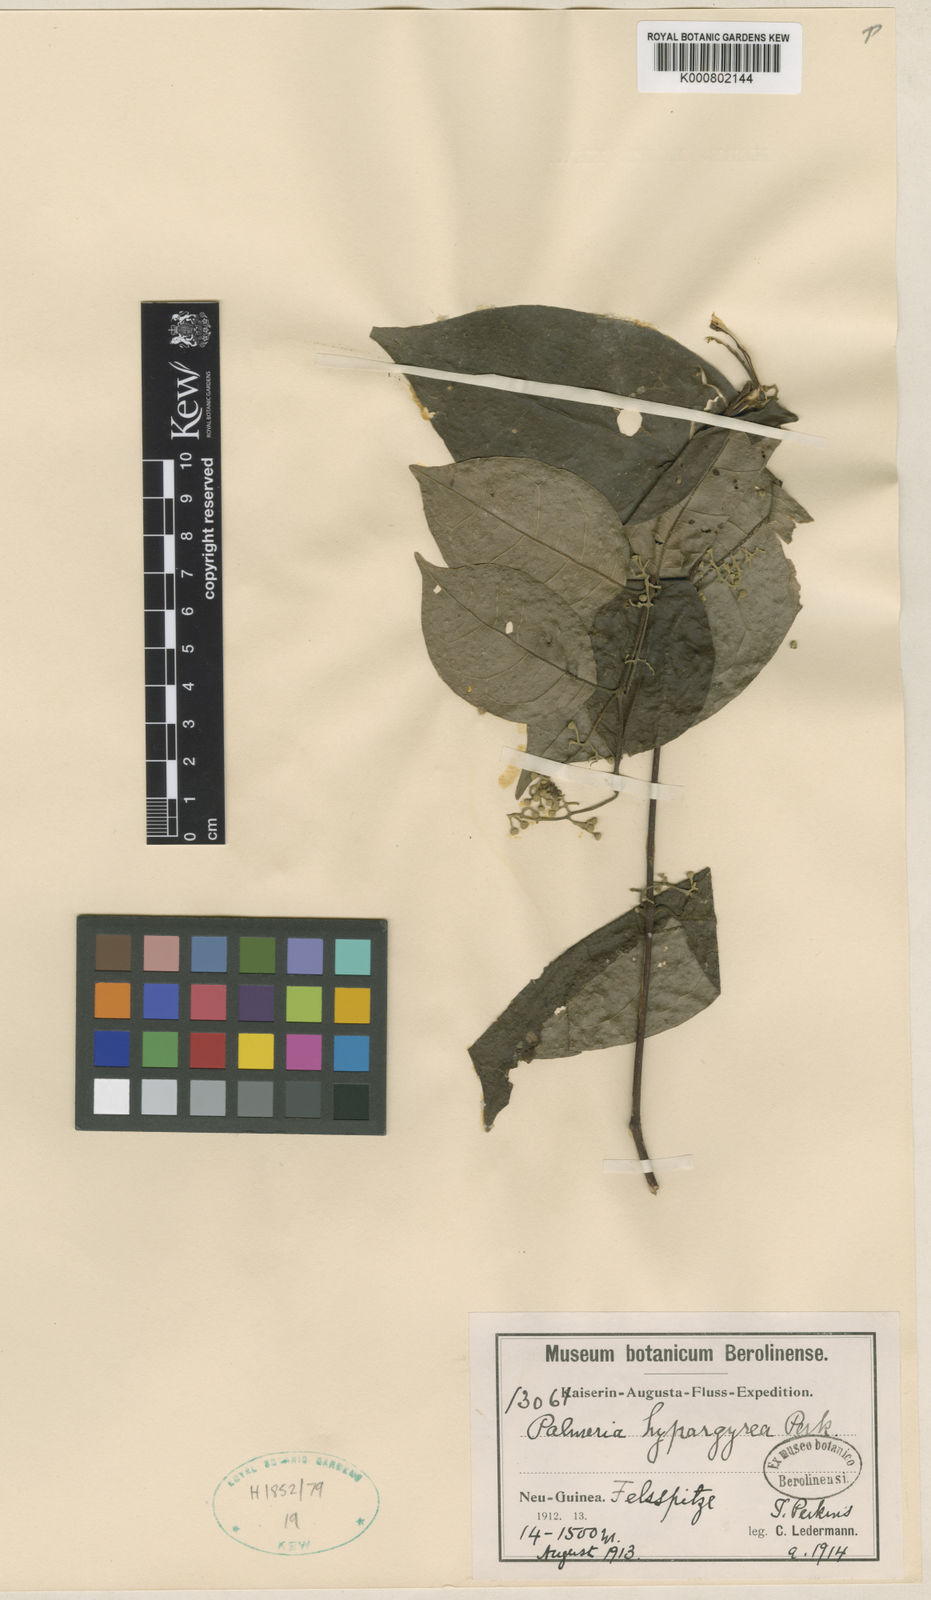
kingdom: Plantae
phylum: Tracheophyta
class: Magnoliopsida
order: Laurales
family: Monimiaceae
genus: Palmeria
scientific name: Palmeria hypargyrea
